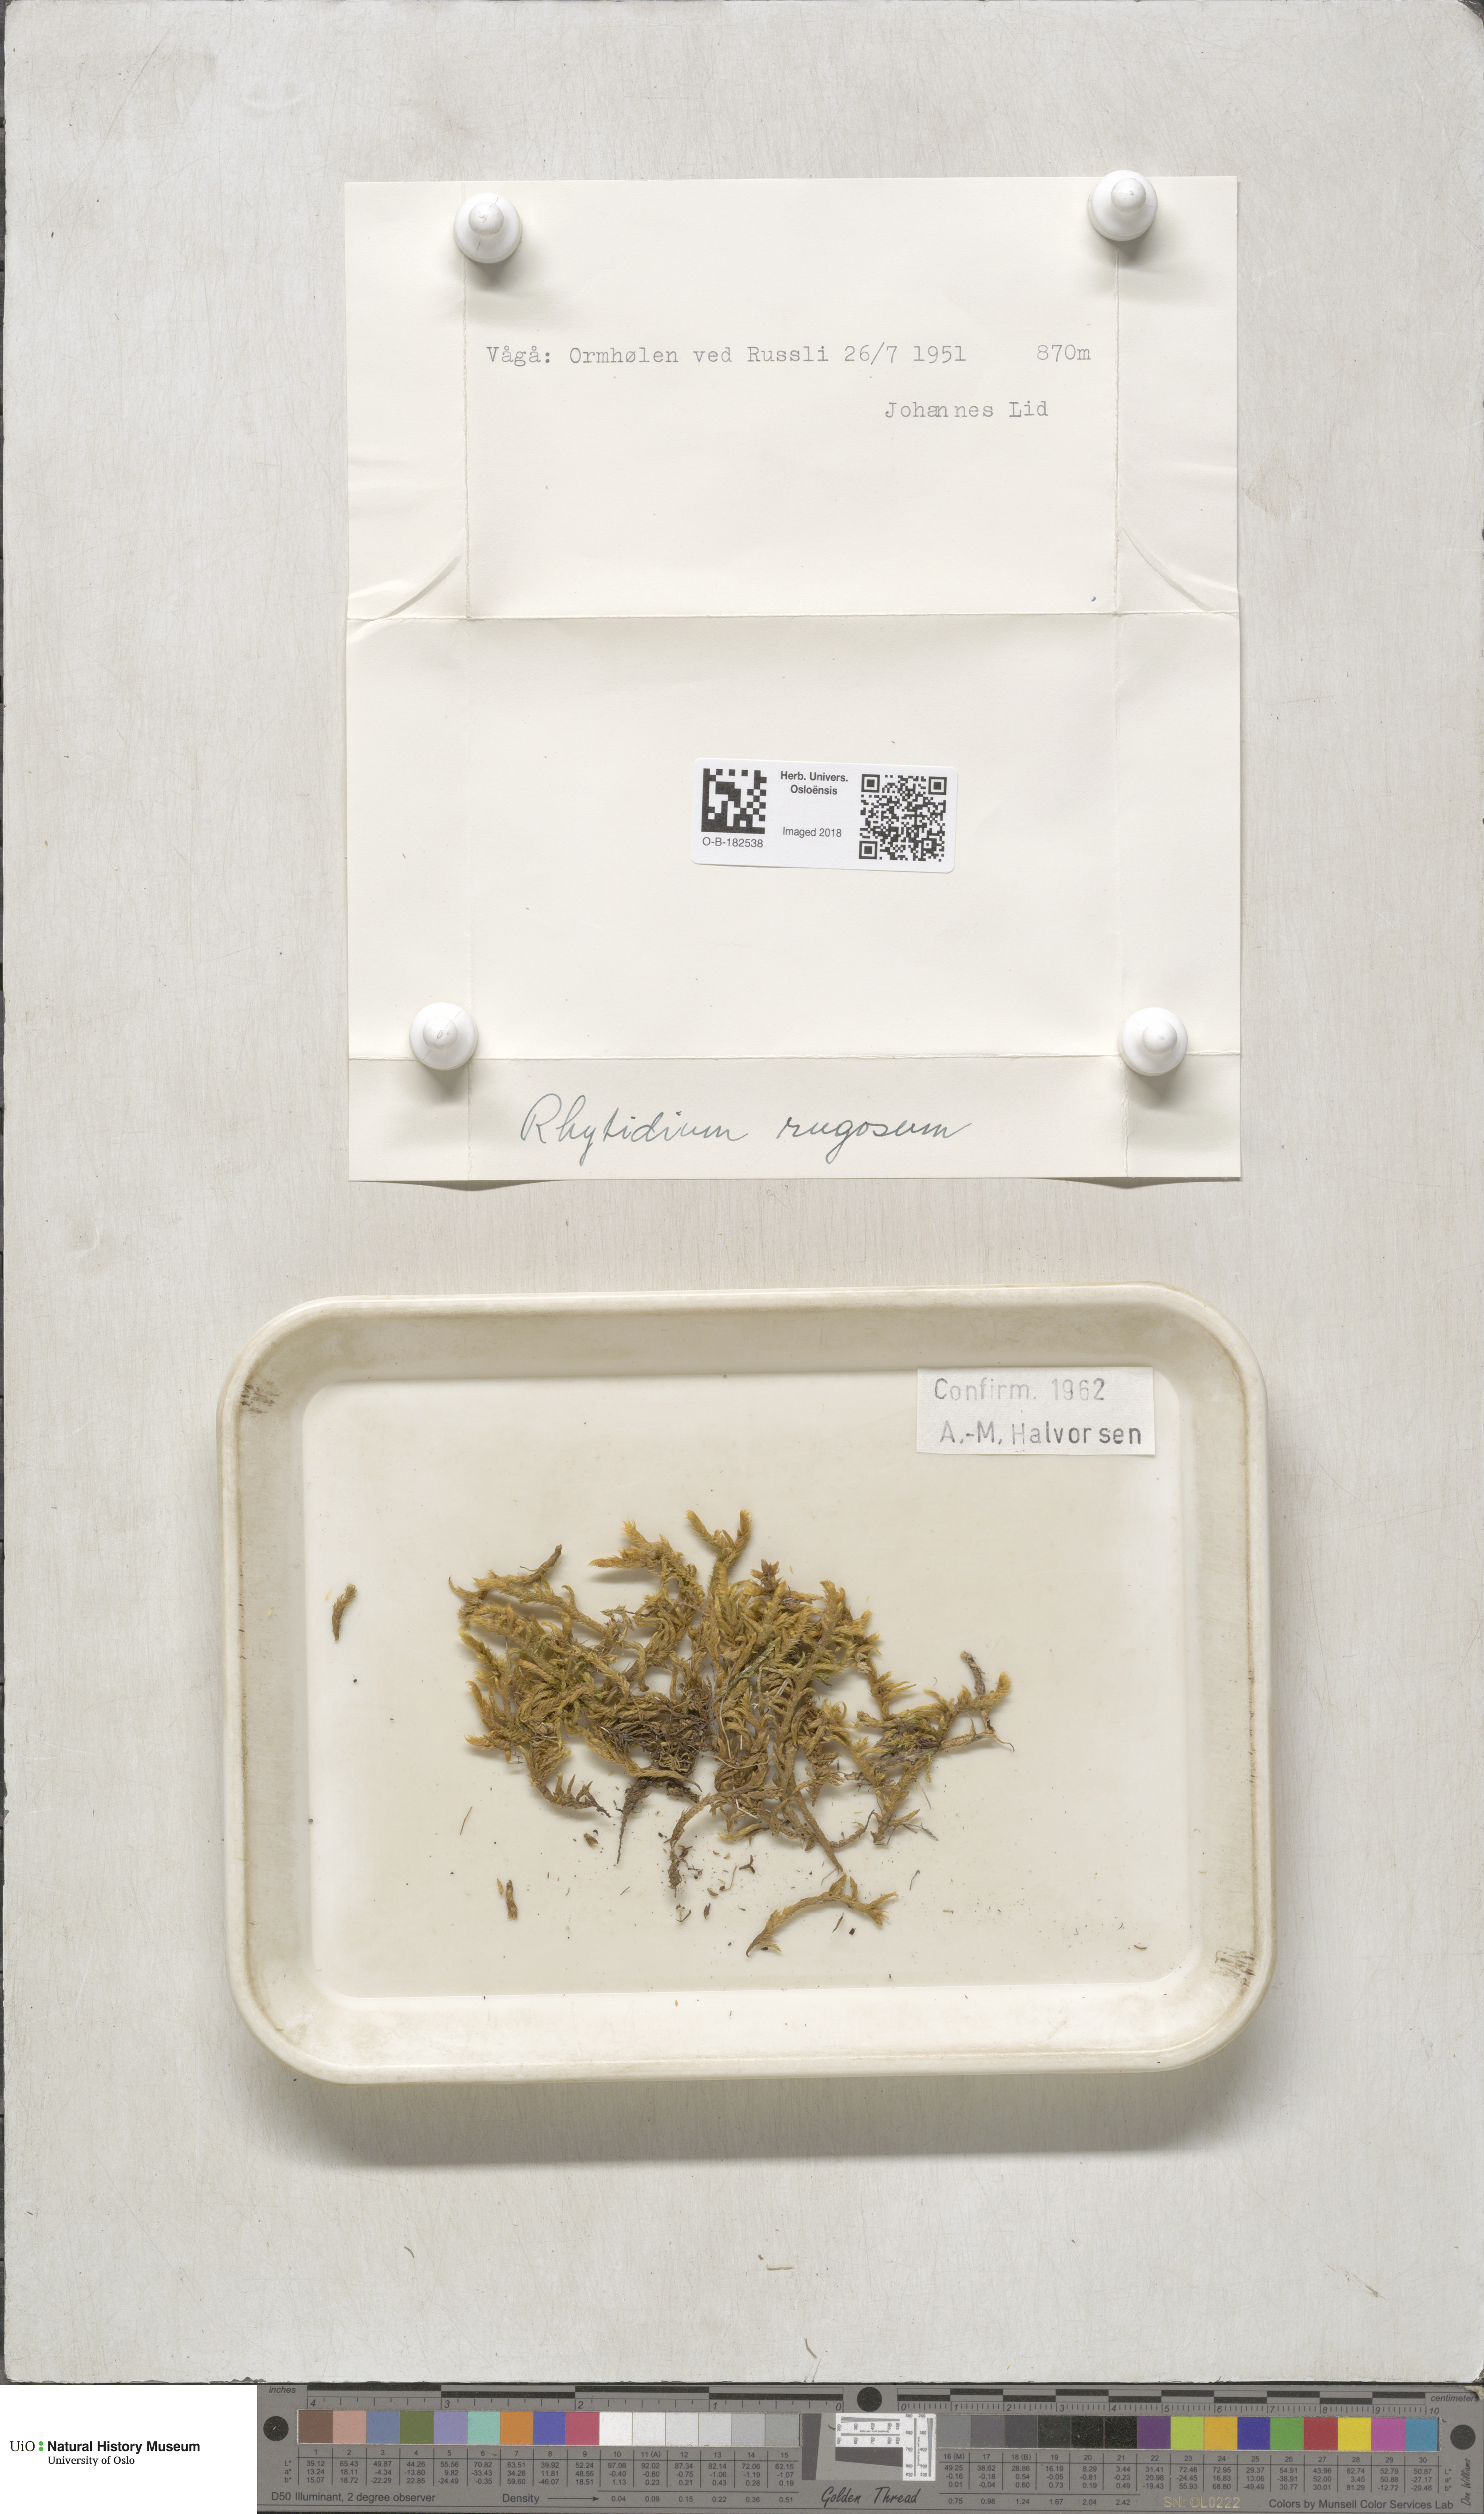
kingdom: Plantae
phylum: Bryophyta
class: Bryopsida
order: Hypnales
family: Rhytidiaceae
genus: Rhytidium
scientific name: Rhytidium rugosum
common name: Wrinkle-leaved moss
